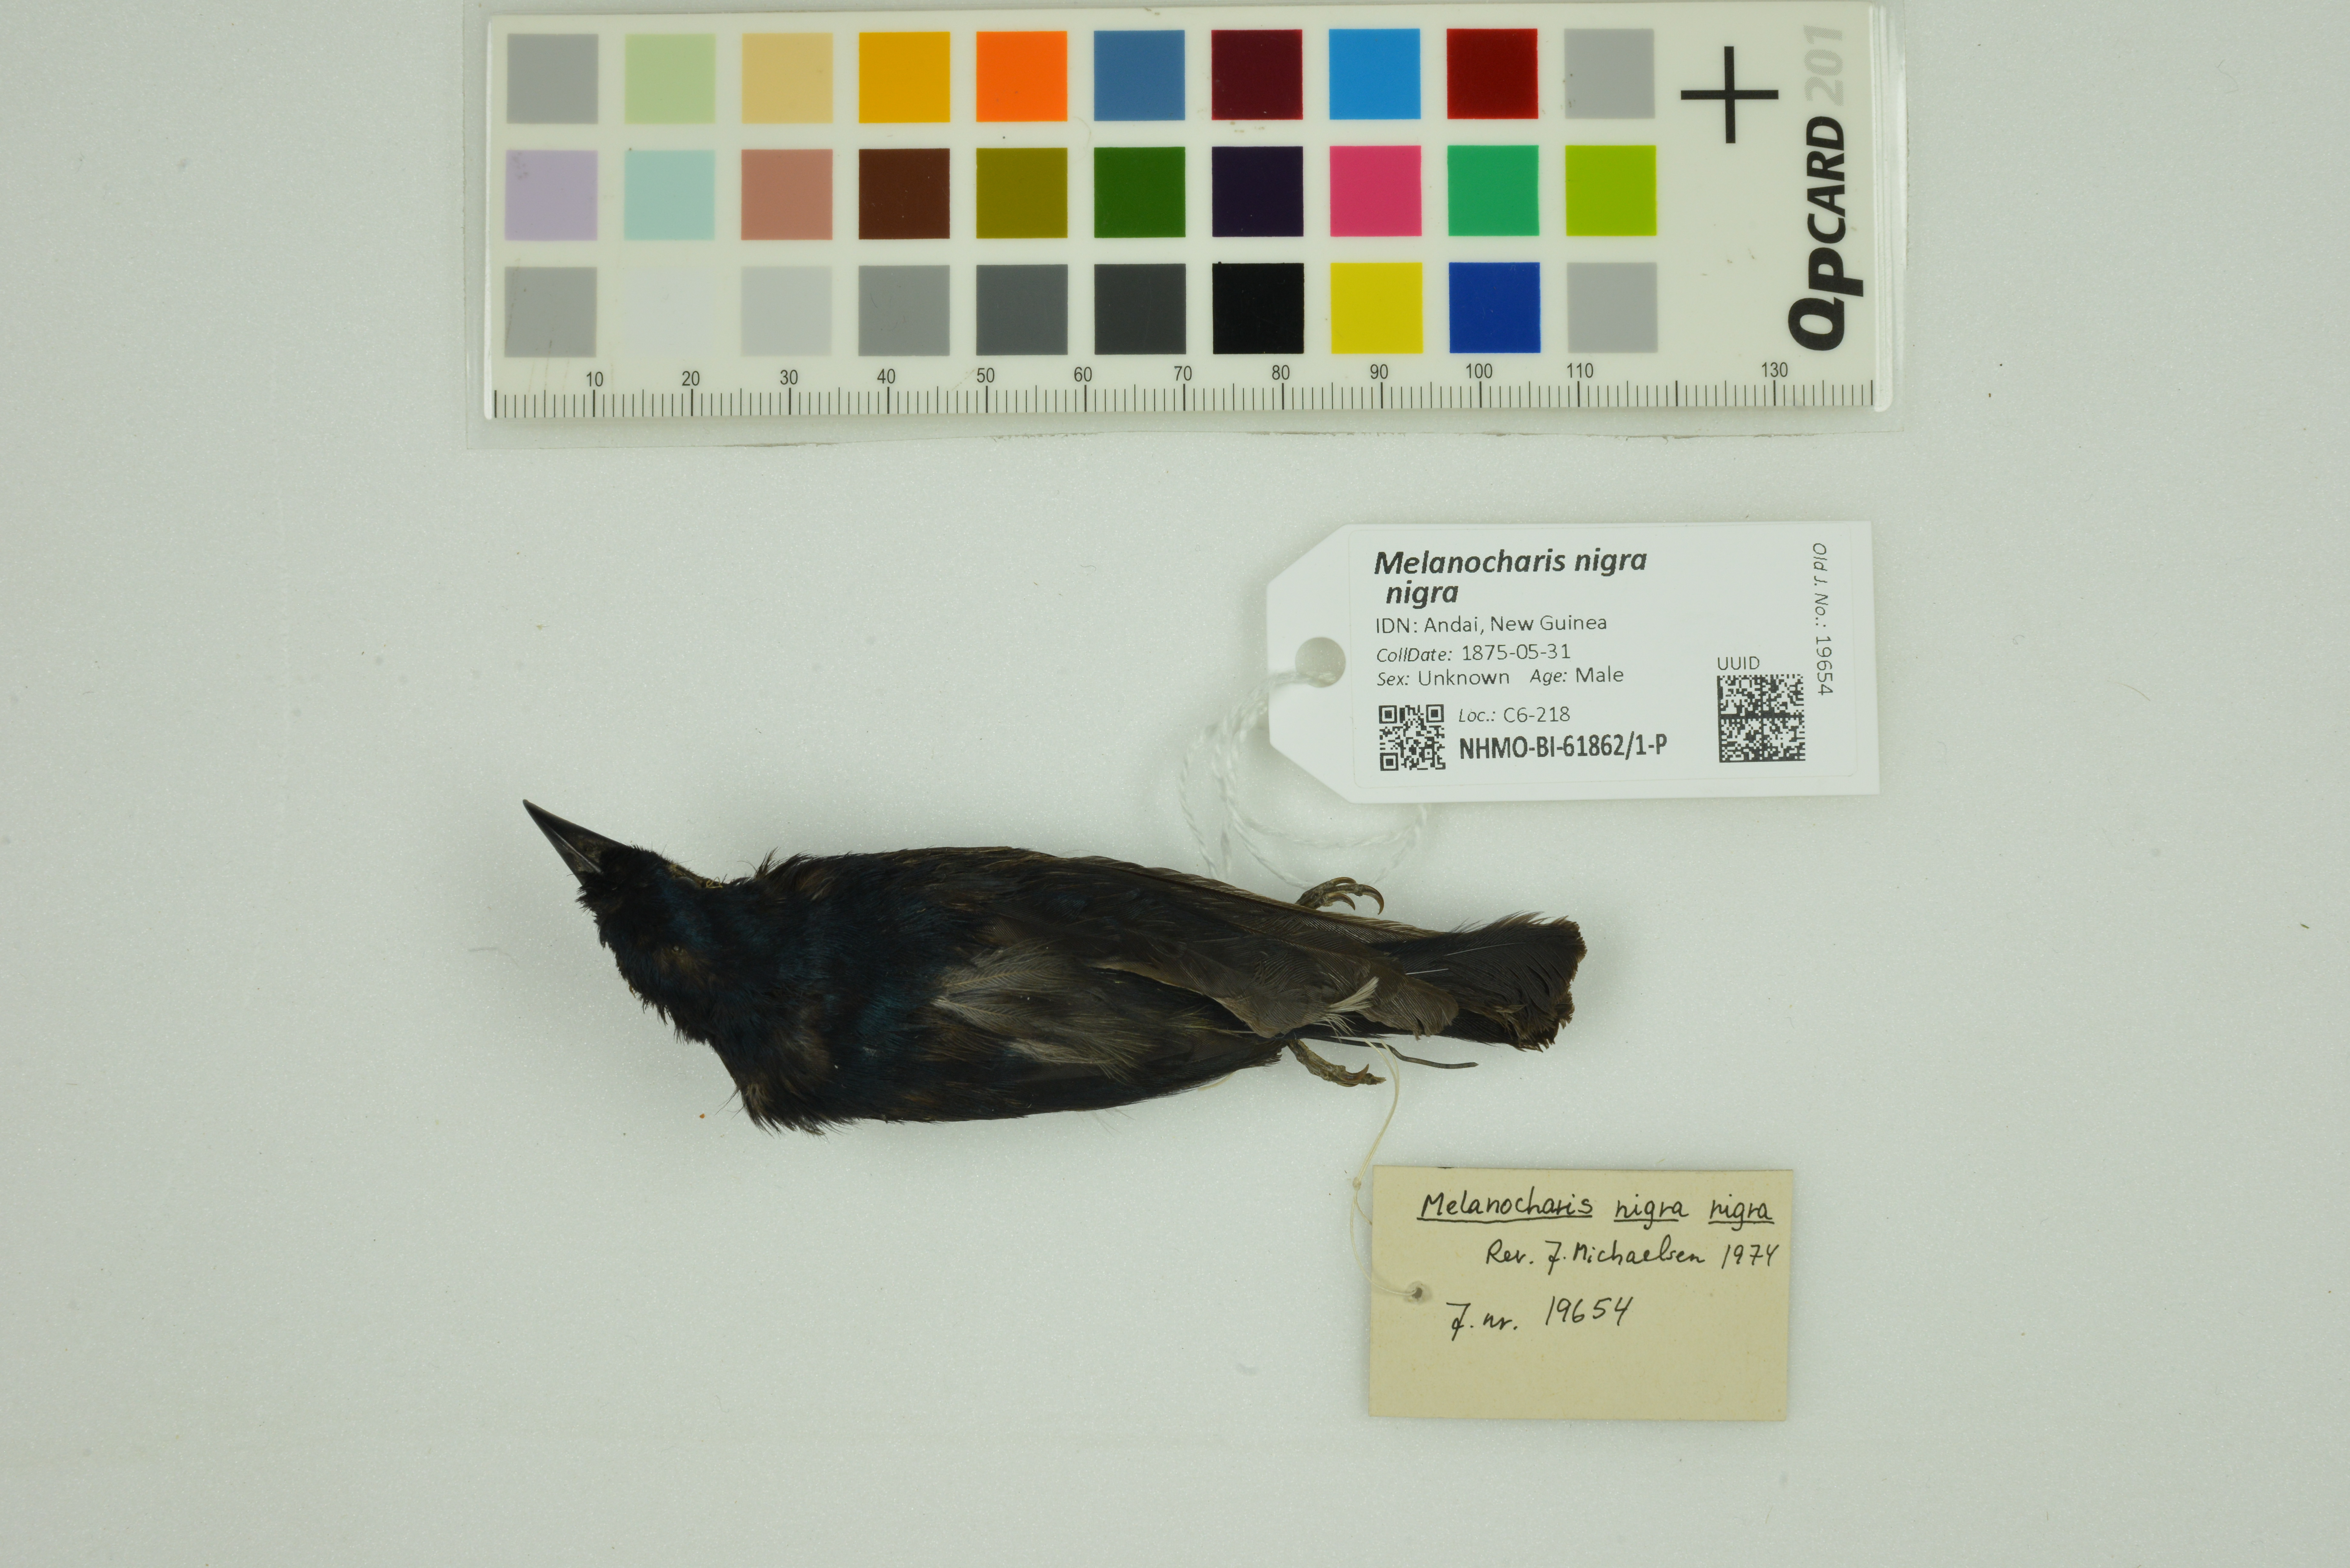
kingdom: Animalia
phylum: Chordata
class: Aves
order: Passeriformes
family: Melanocharitidae
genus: Melanocharis
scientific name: Melanocharis nigra
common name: Black berrypecker
